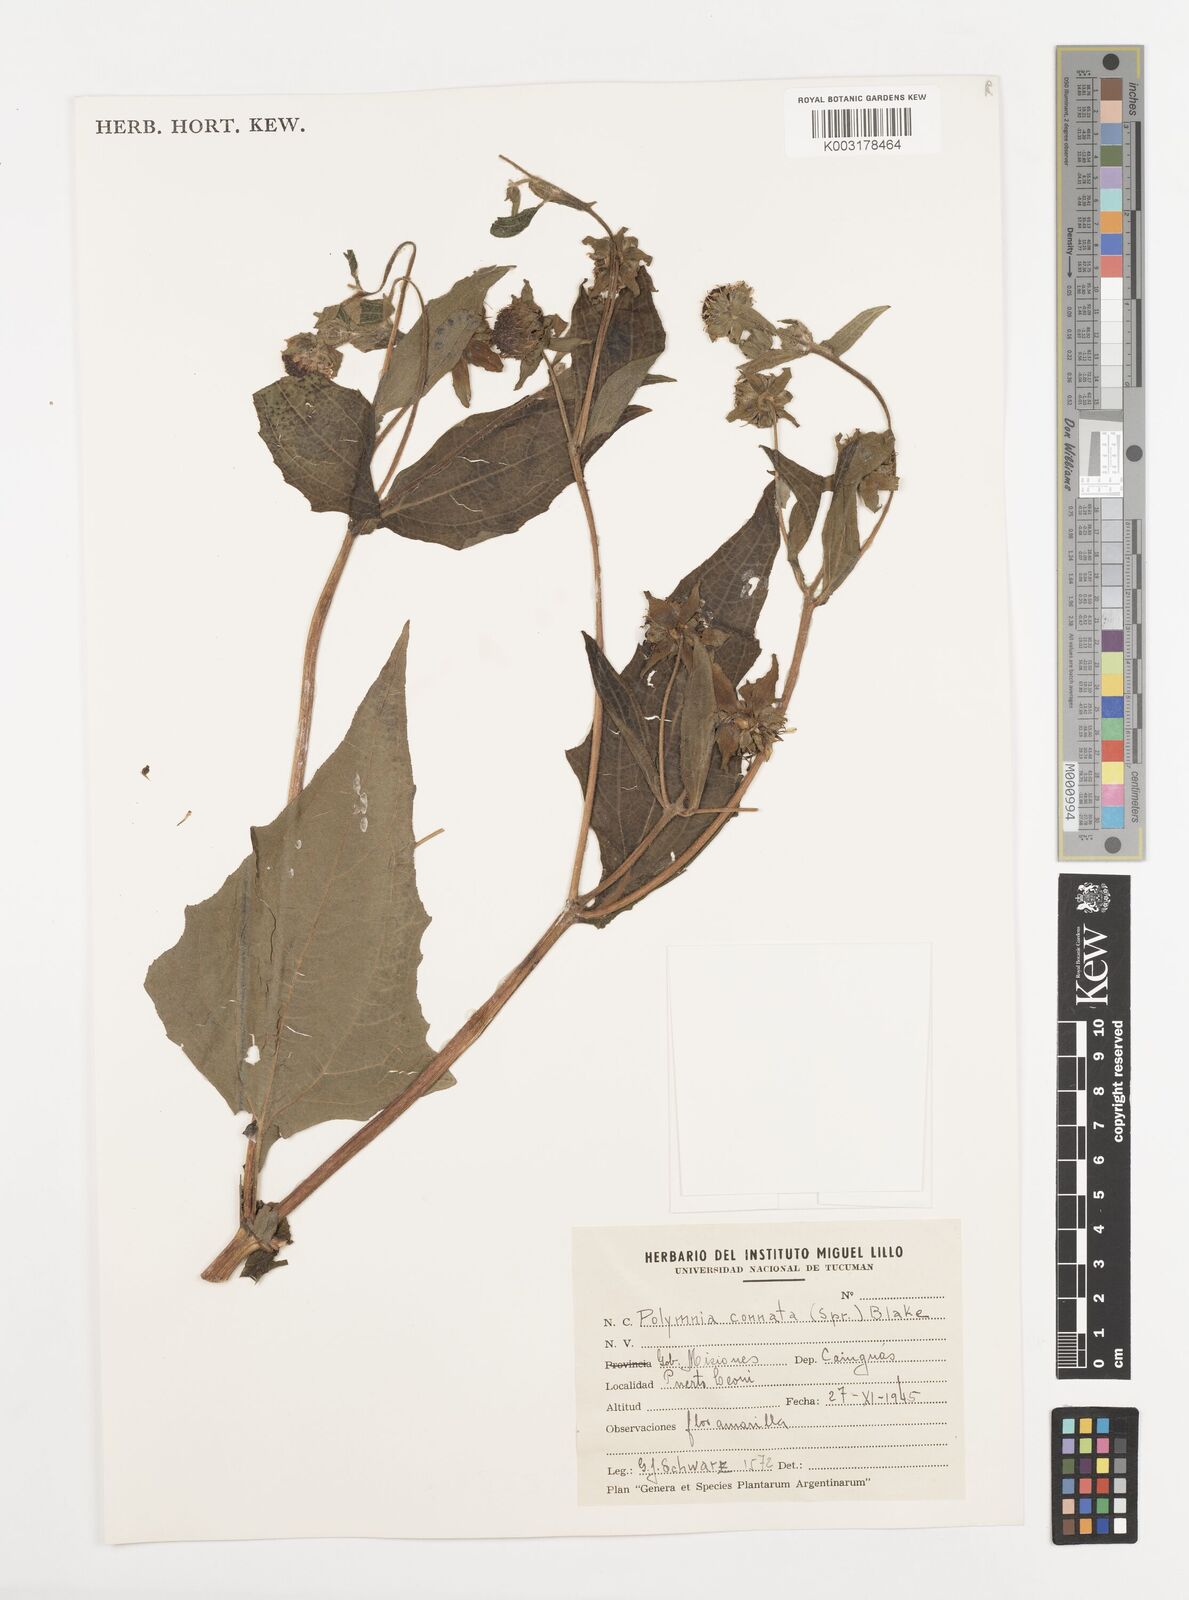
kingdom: Plantae
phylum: Tracheophyta
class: Magnoliopsida
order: Asterales
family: Asteraceae
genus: Smallanthus
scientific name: Smallanthus connatus
